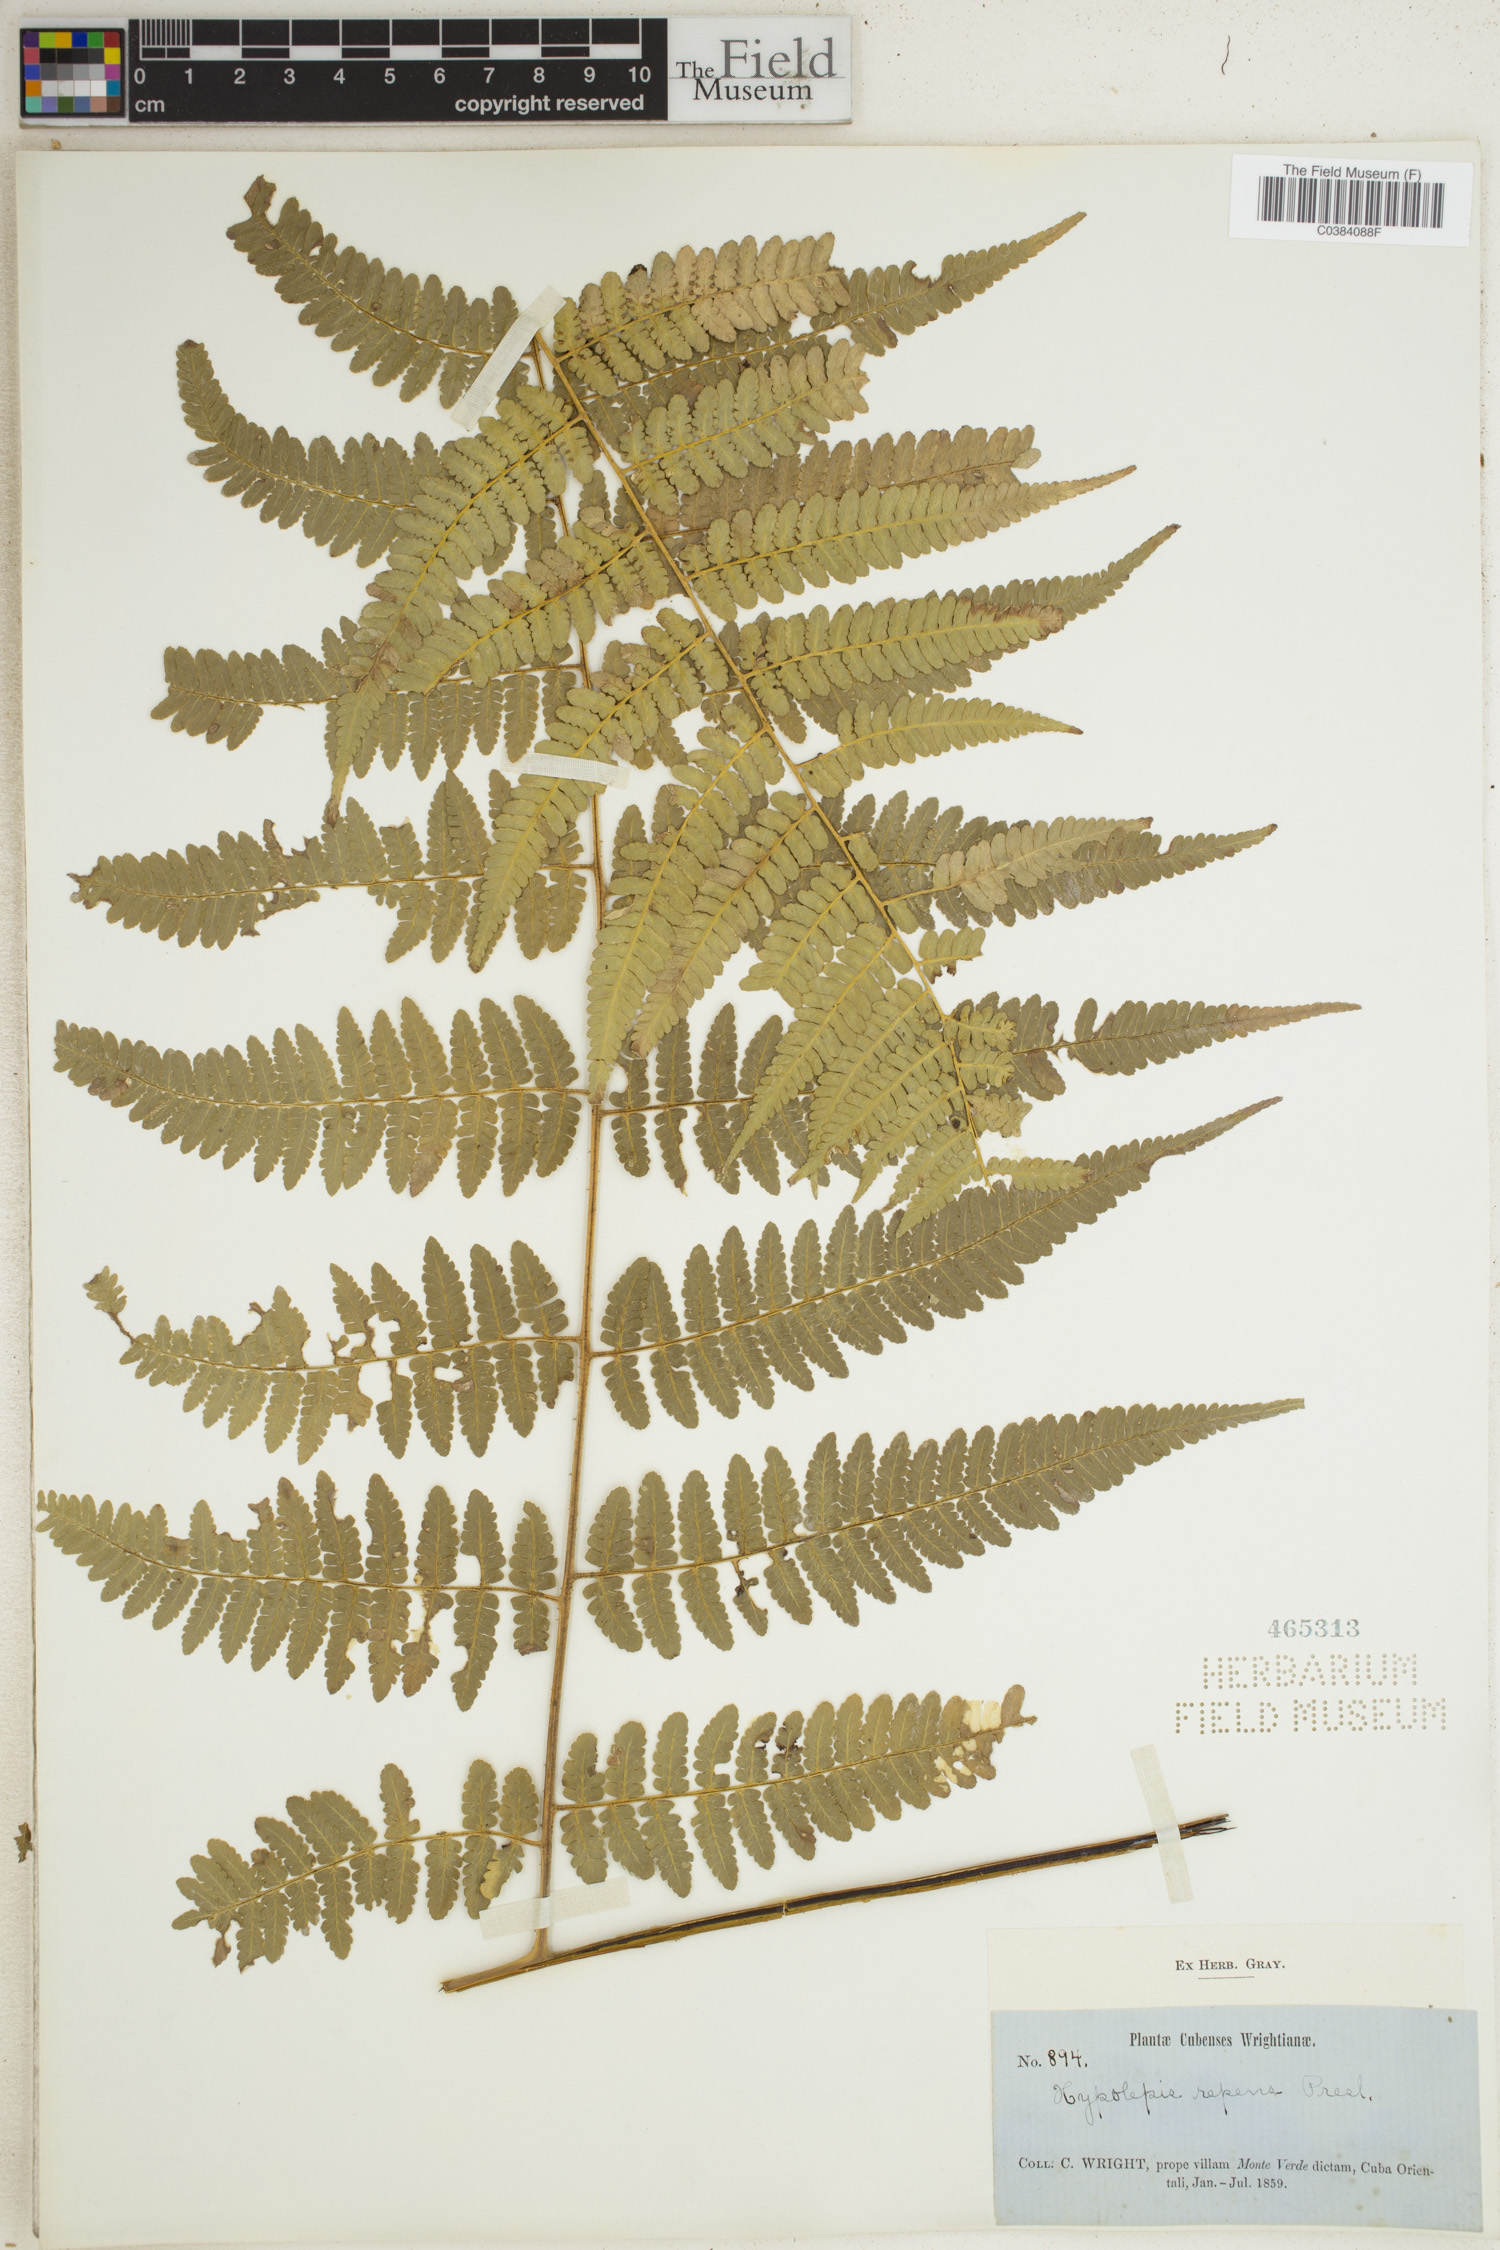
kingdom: Plantae
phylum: Tracheophyta
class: Polypodiopsida
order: Polypodiales
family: Dennstaedtiaceae
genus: Hypolepis
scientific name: Hypolepis repens
